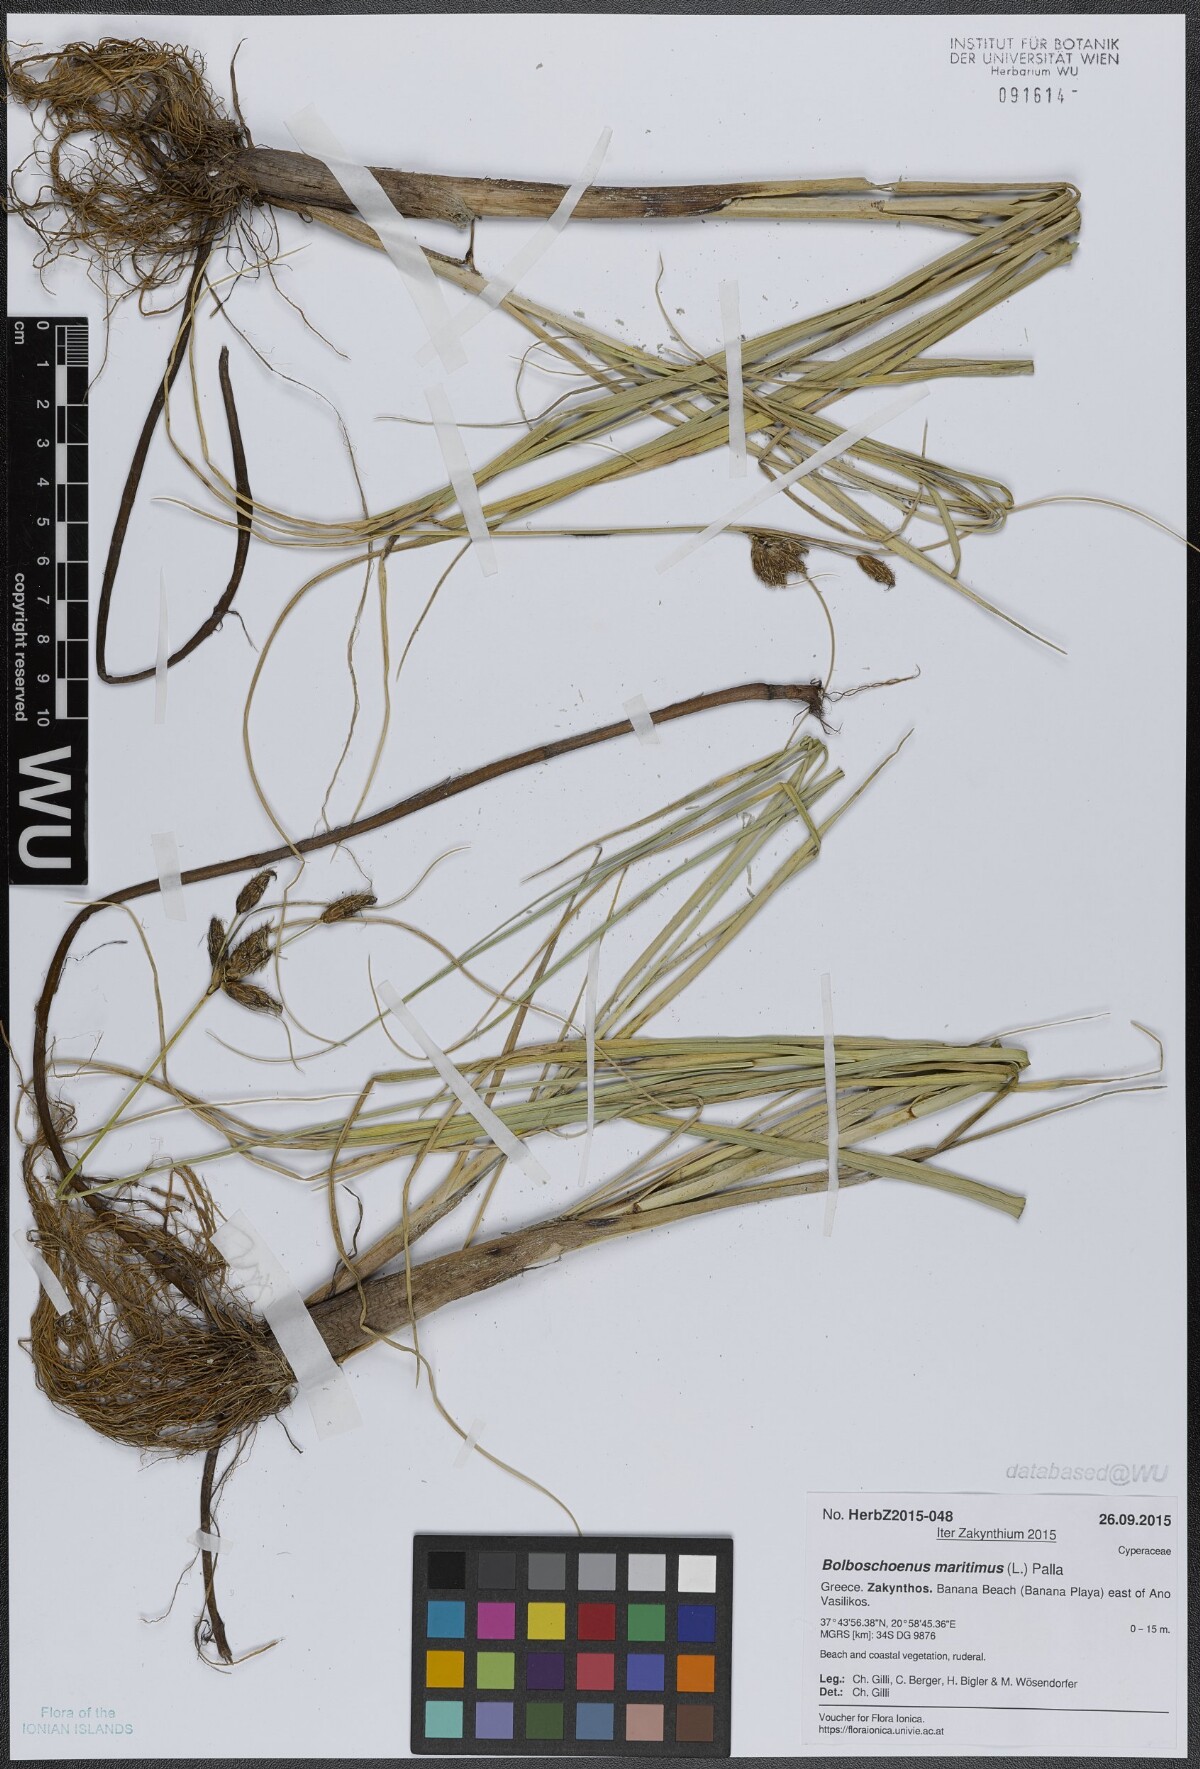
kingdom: Plantae
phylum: Tracheophyta
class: Liliopsida
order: Poales
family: Cyperaceae
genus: Bolboschoenus
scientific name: Bolboschoenus maritimus
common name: Sea club-rush
